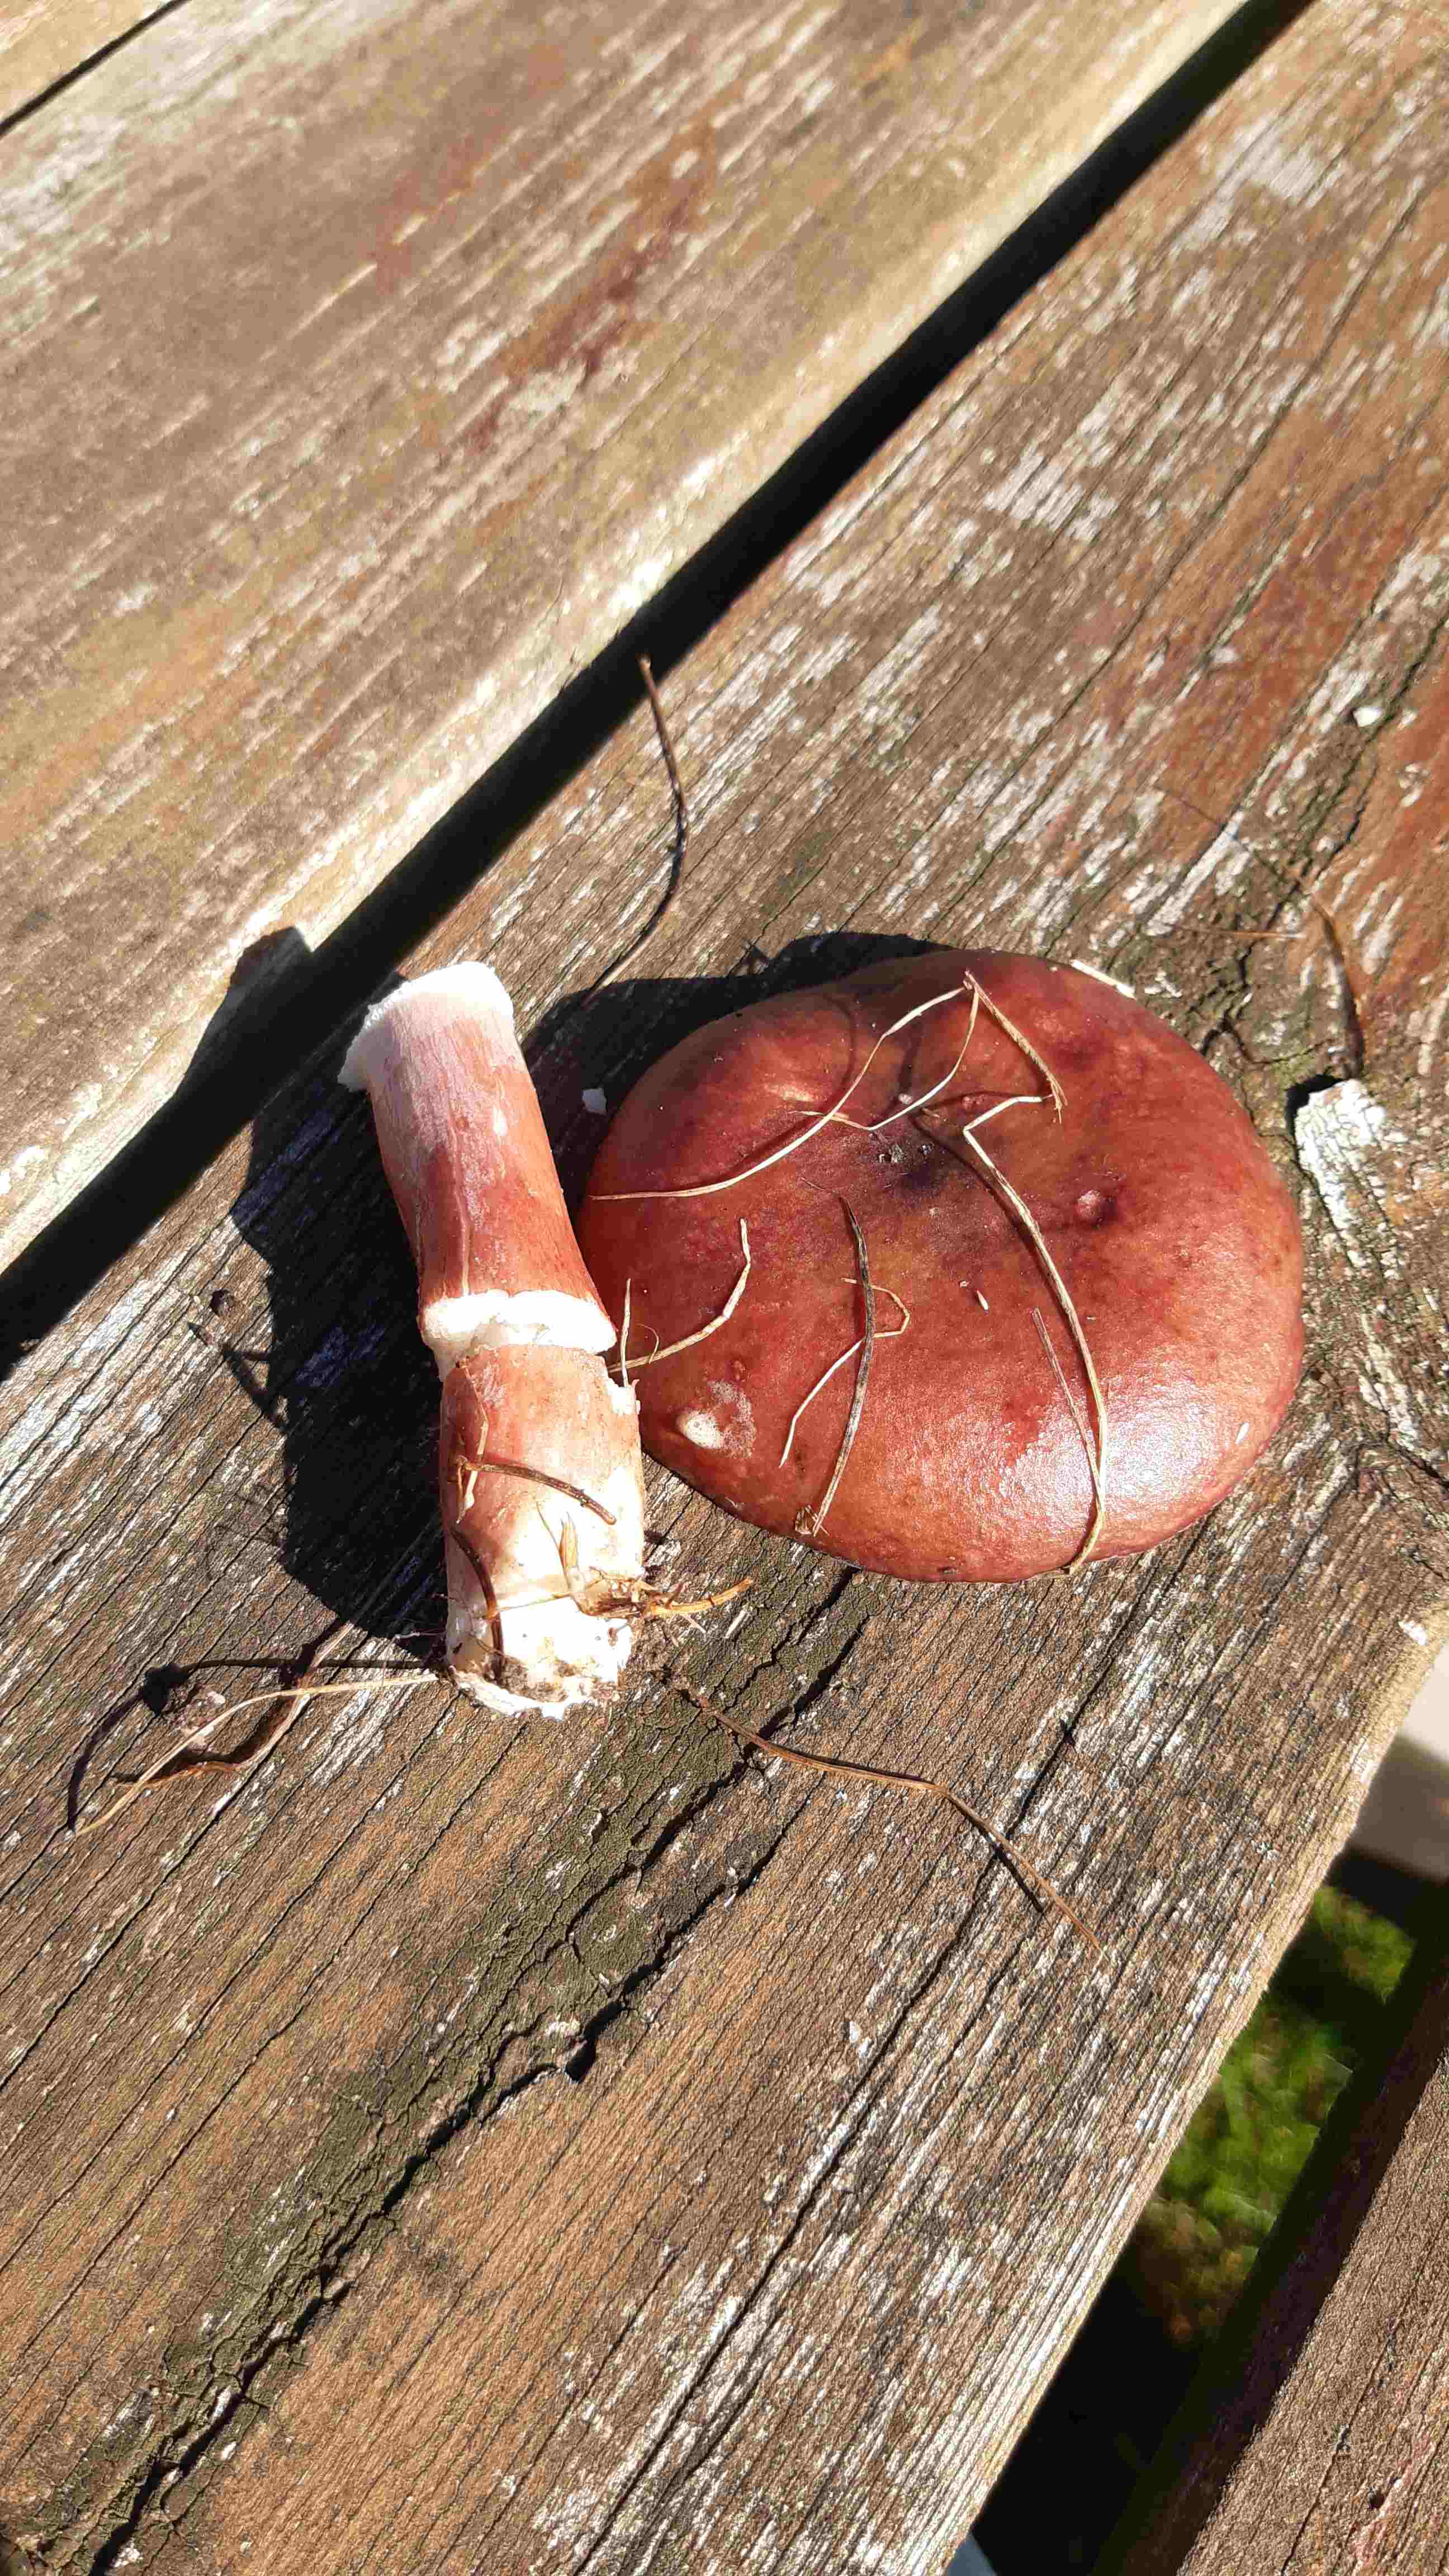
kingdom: Fungi
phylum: Basidiomycota
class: Agaricomycetes
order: Russulales
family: Russulaceae
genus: Russula
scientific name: Russula
